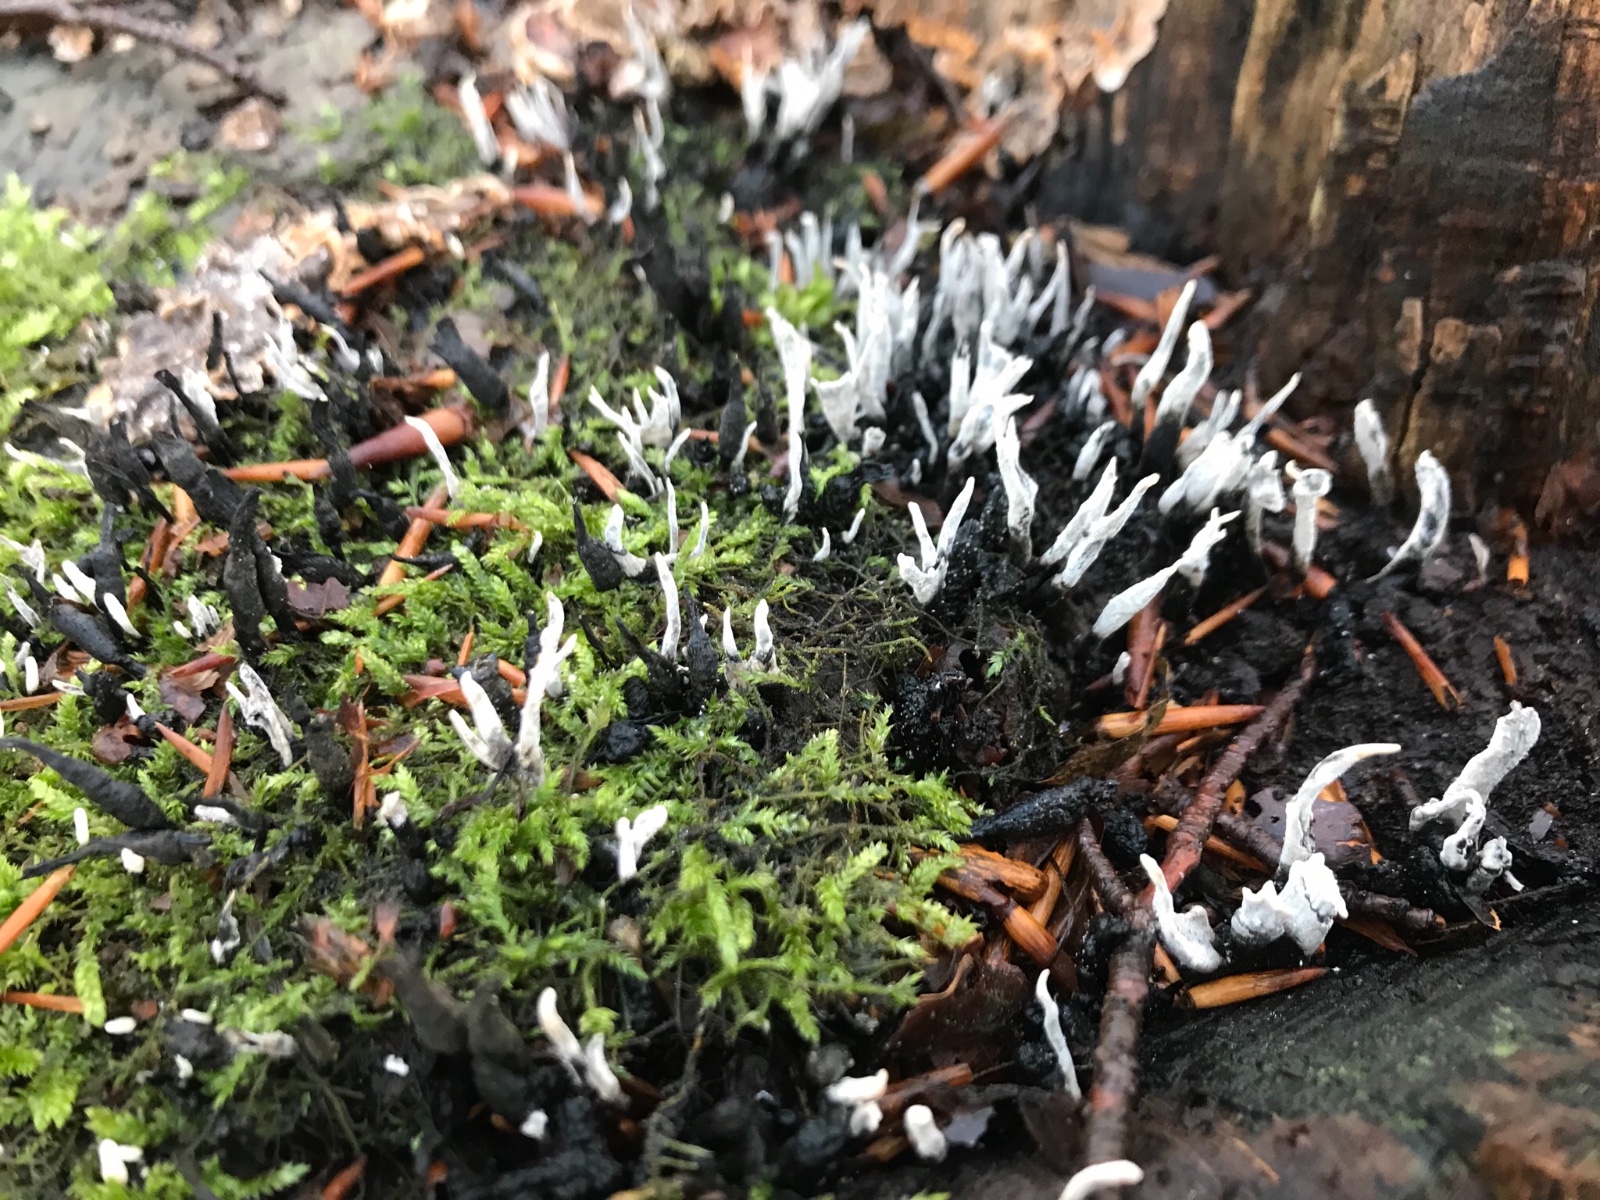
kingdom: Fungi
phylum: Ascomycota
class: Sordariomycetes
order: Xylariales
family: Xylariaceae
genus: Xylaria
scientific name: Xylaria hypoxylon
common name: grenet stødsvamp
